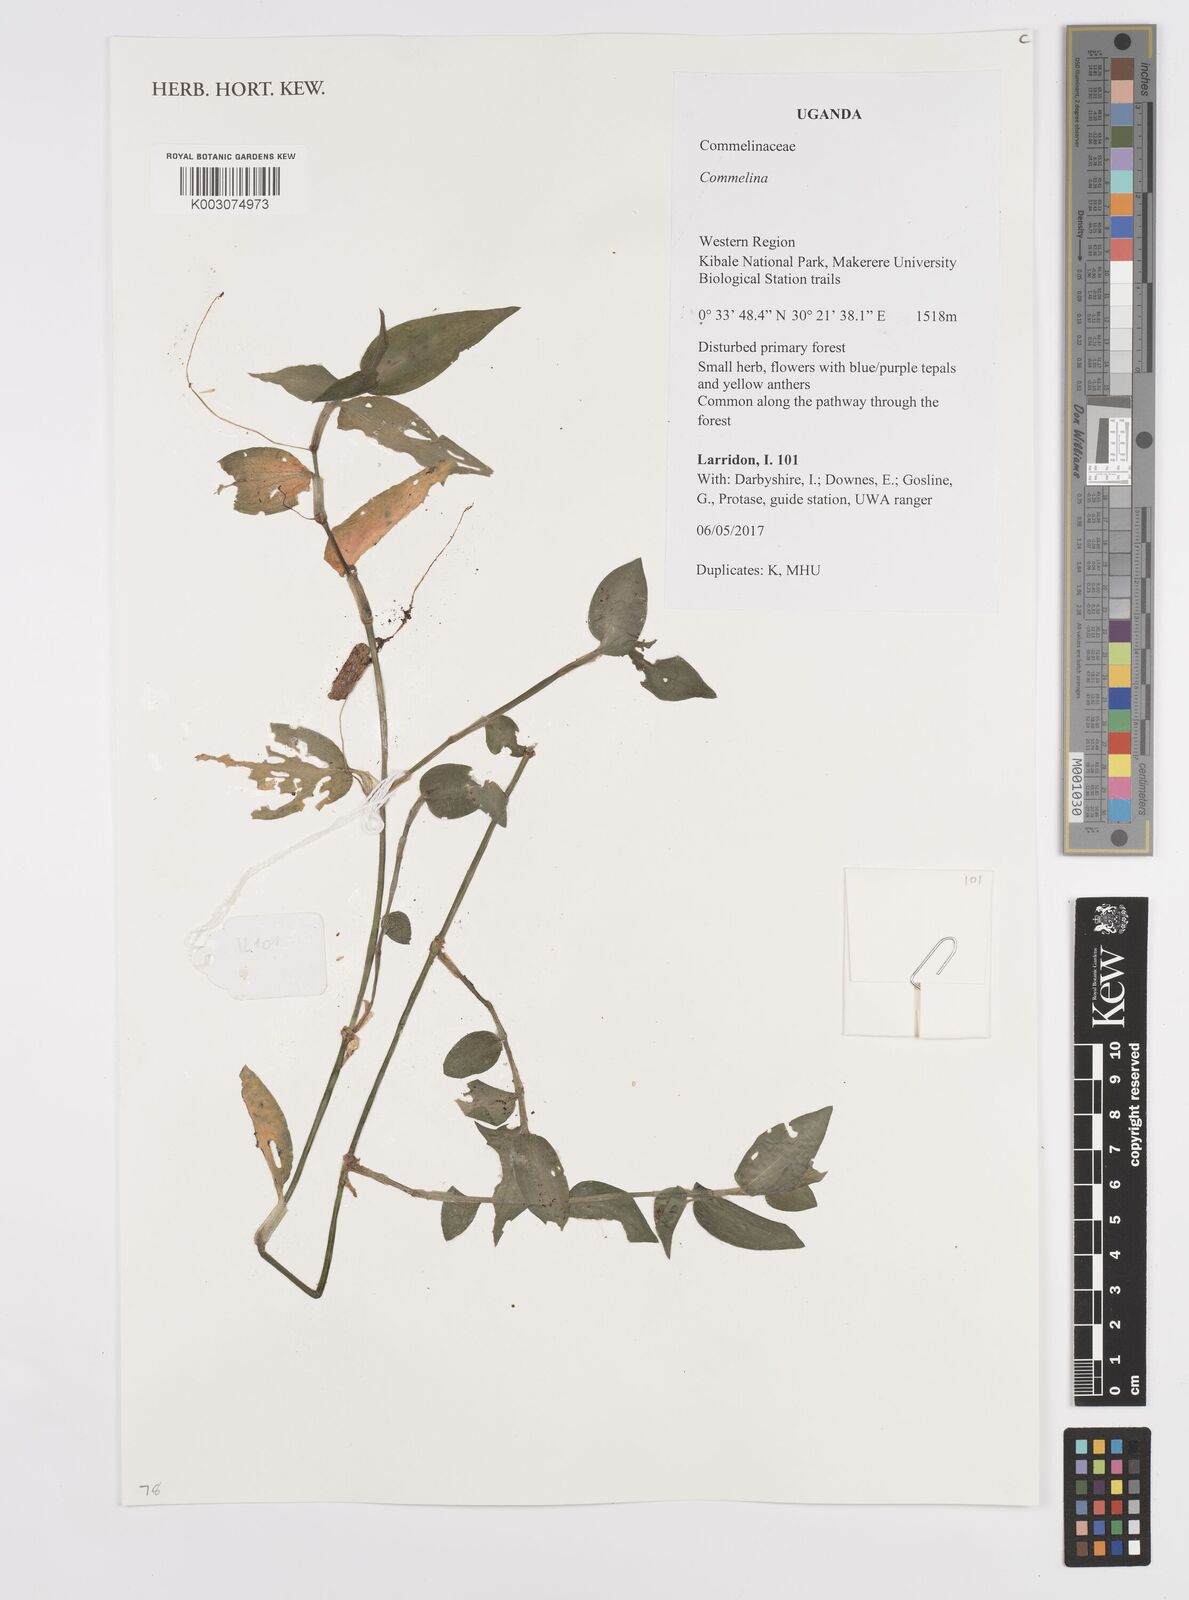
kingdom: Plantae
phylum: Tracheophyta
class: Liliopsida
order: Commelinales
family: Commelinaceae
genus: Commelina
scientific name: Commelina
